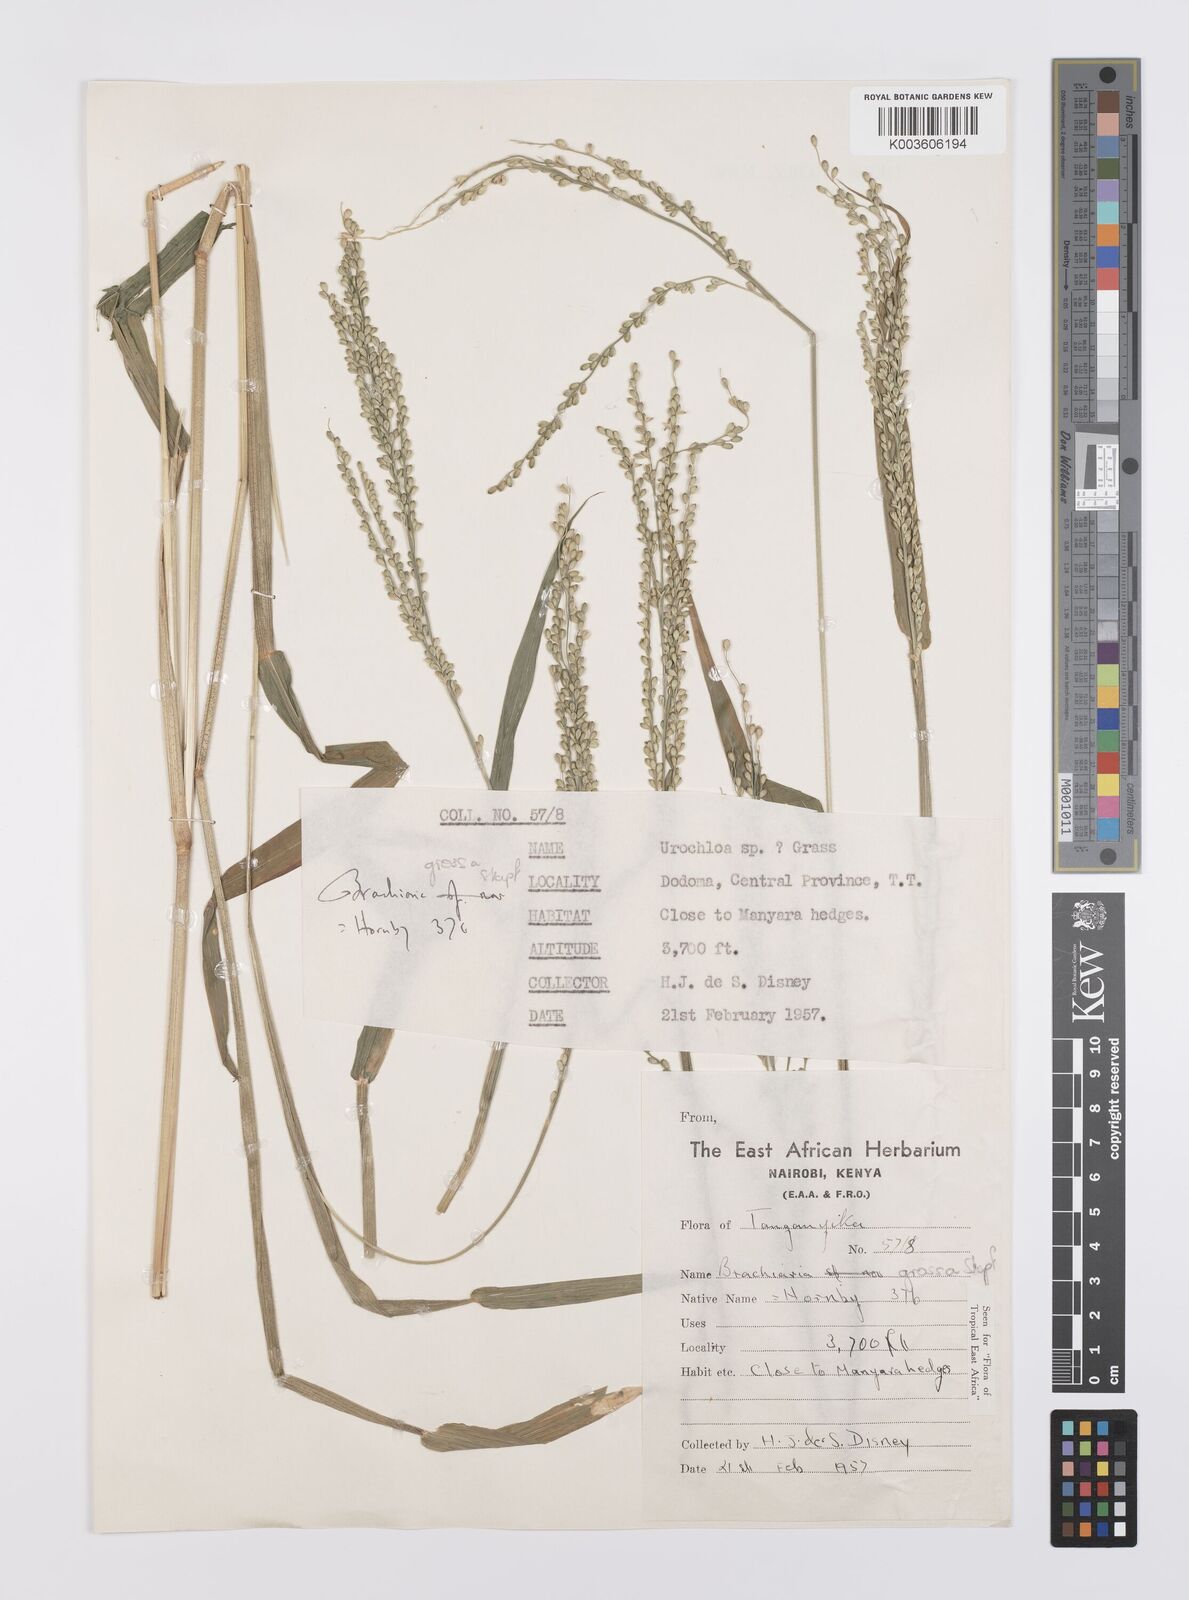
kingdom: Plantae
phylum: Tracheophyta
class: Liliopsida
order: Poales
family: Poaceae
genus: Urochloa
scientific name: Urochloa Brachiaria grossa
